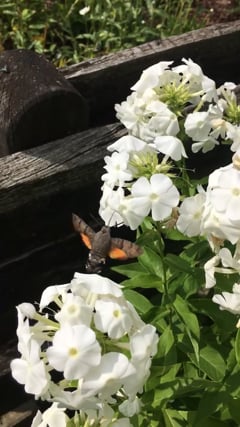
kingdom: Animalia
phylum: Arthropoda
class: Insecta
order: Lepidoptera
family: Sphingidae
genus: Macroglossum
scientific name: Macroglossum stellatarum
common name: Humming-bird hawk-moth
